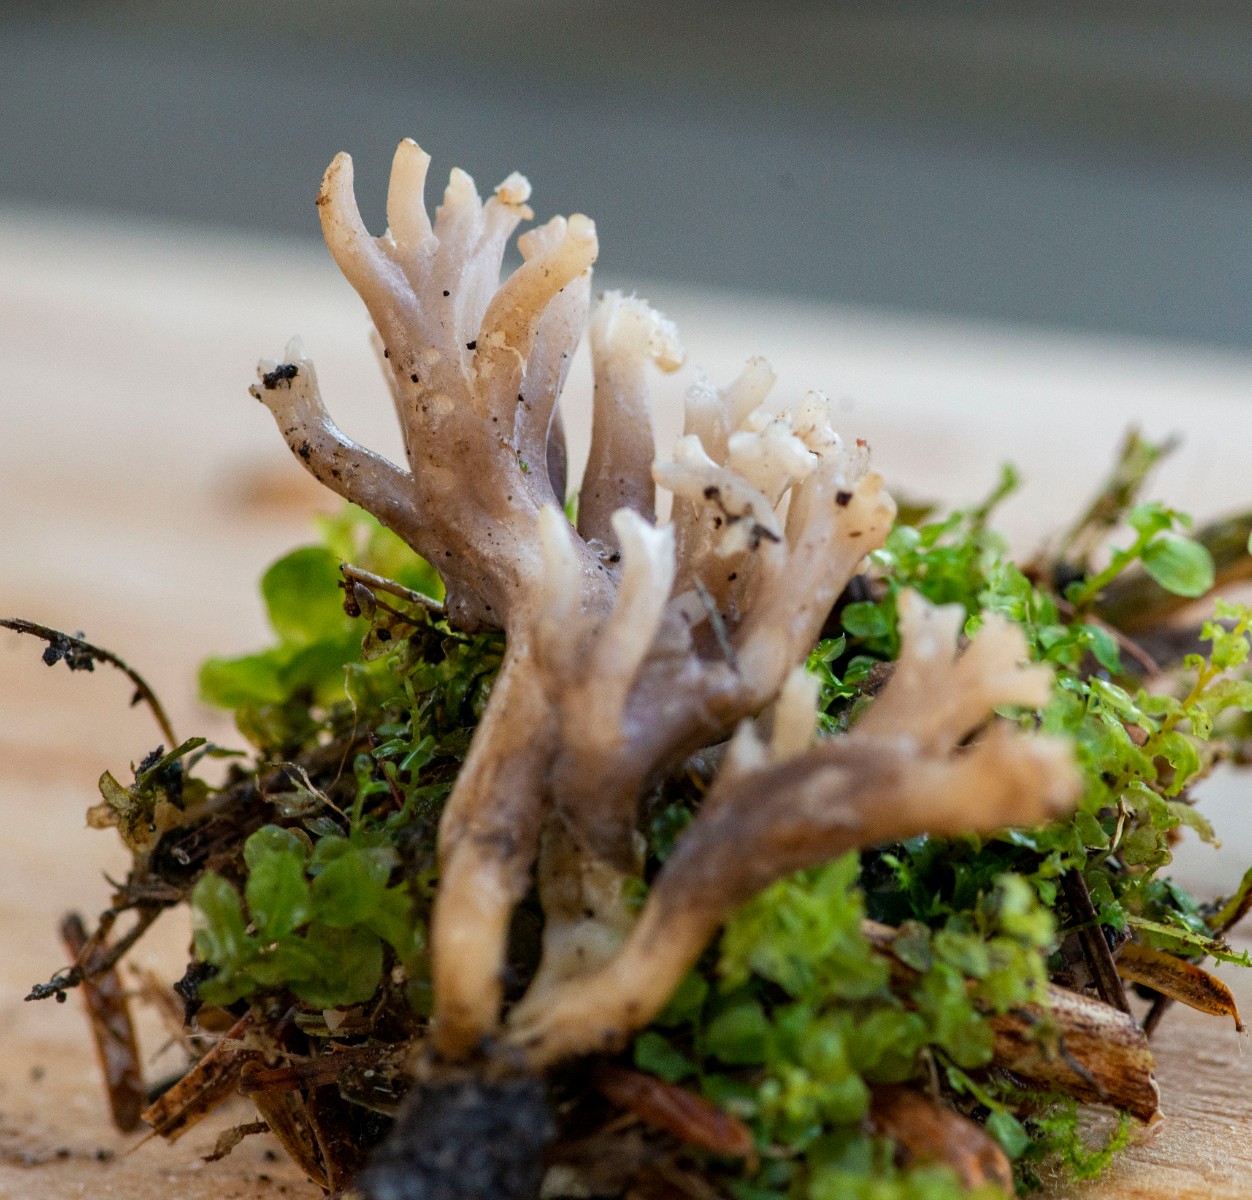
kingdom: Fungi
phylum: Basidiomycota
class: Agaricomycetes
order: Cantharellales
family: Hydnaceae
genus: Clavulina
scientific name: Clavulina
